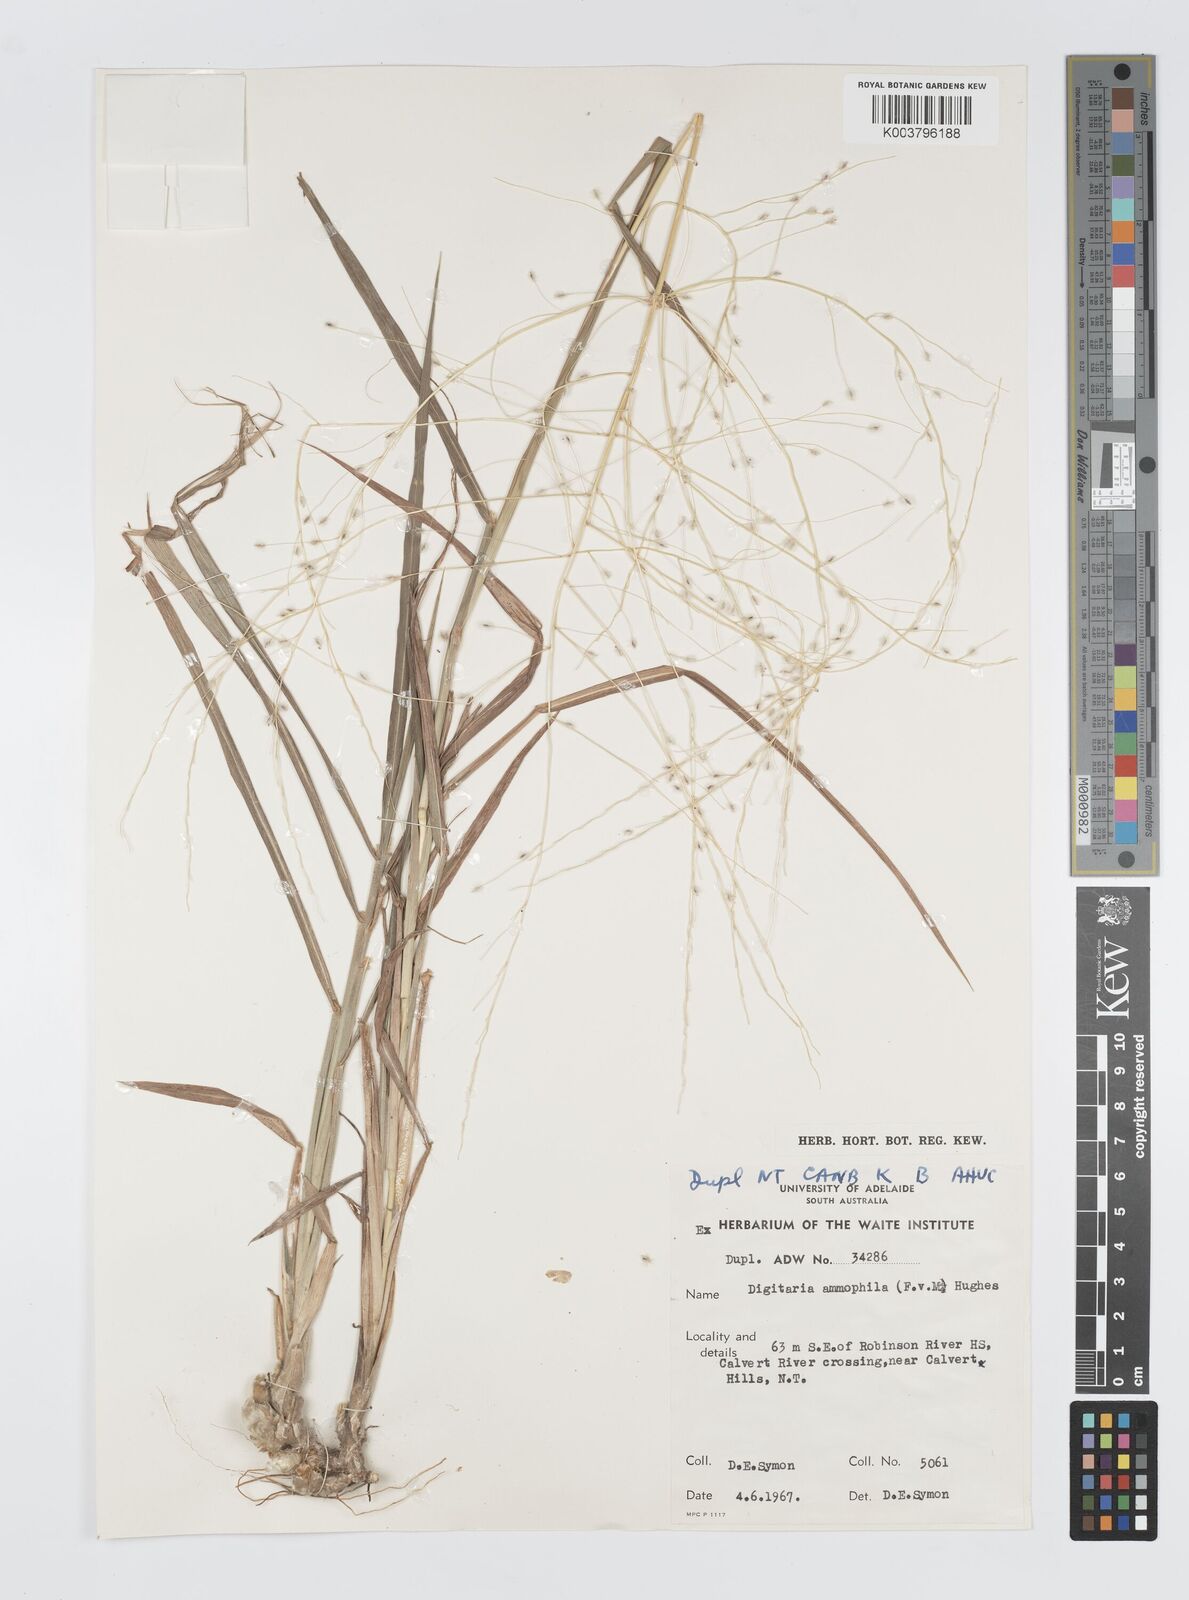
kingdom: Plantae
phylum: Tracheophyta
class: Liliopsida
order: Poales
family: Poaceae
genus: Digitaria
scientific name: Digitaria papposa
